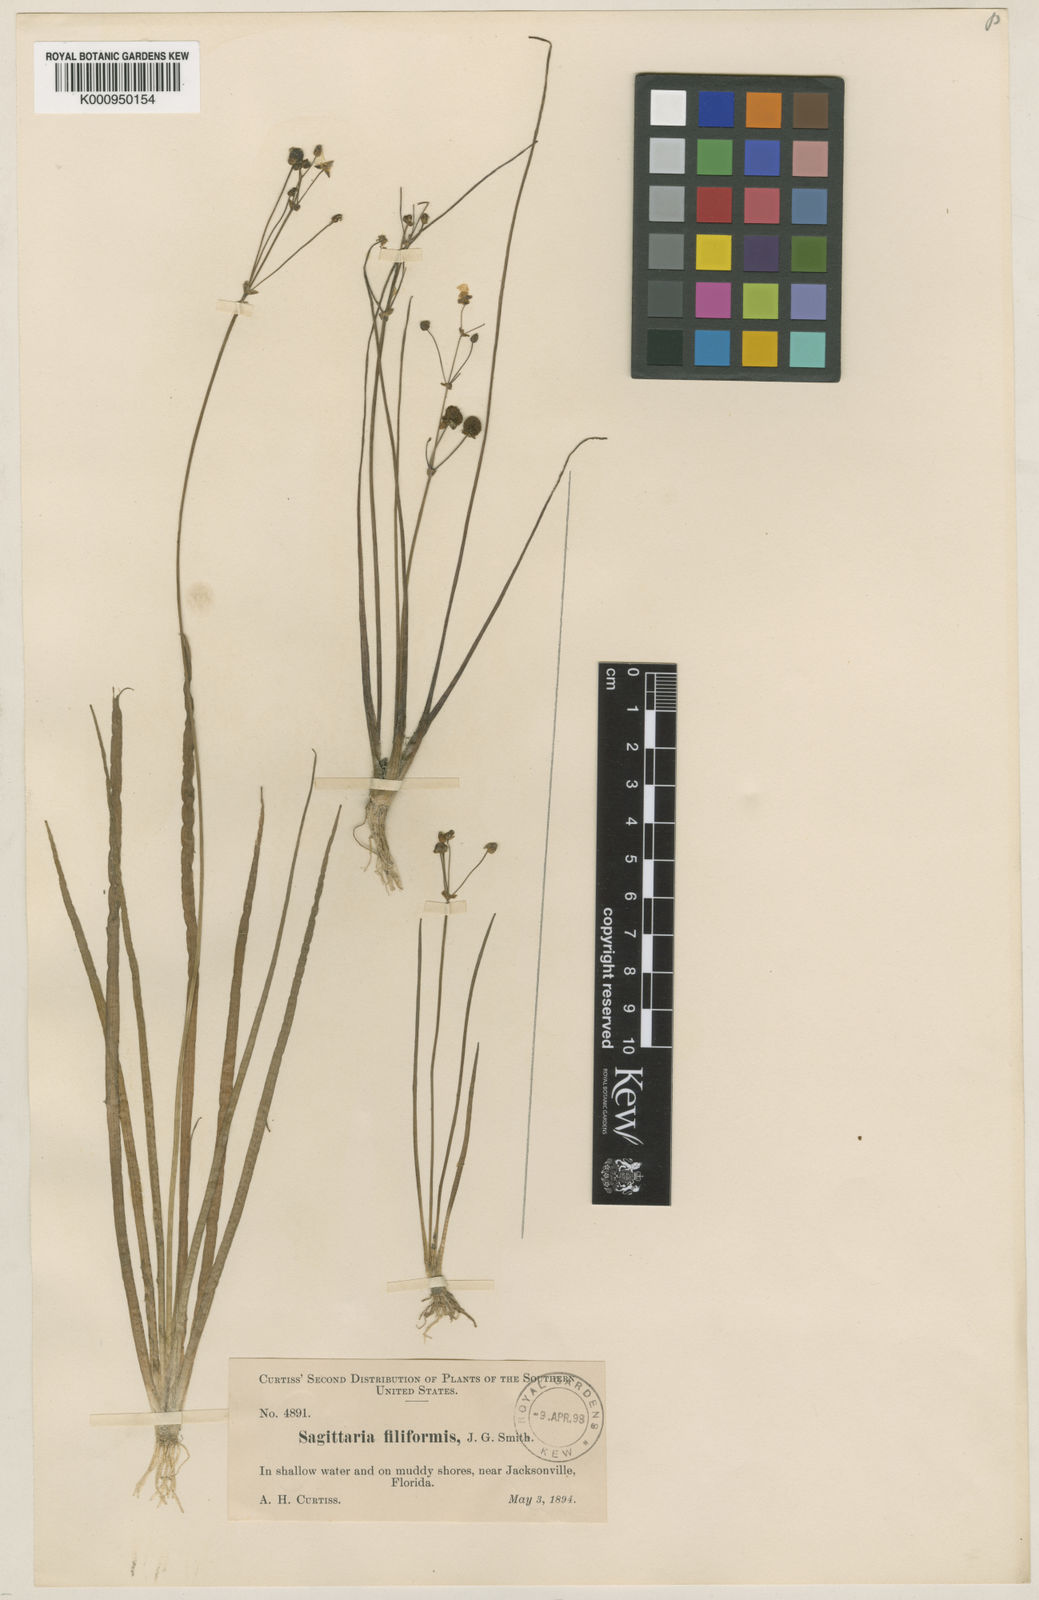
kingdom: Plantae
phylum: Tracheophyta
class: Liliopsida
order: Alismatales
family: Alismataceae
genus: Sagittaria
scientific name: Sagittaria subulata
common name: Narrow-leaved arrowhead
